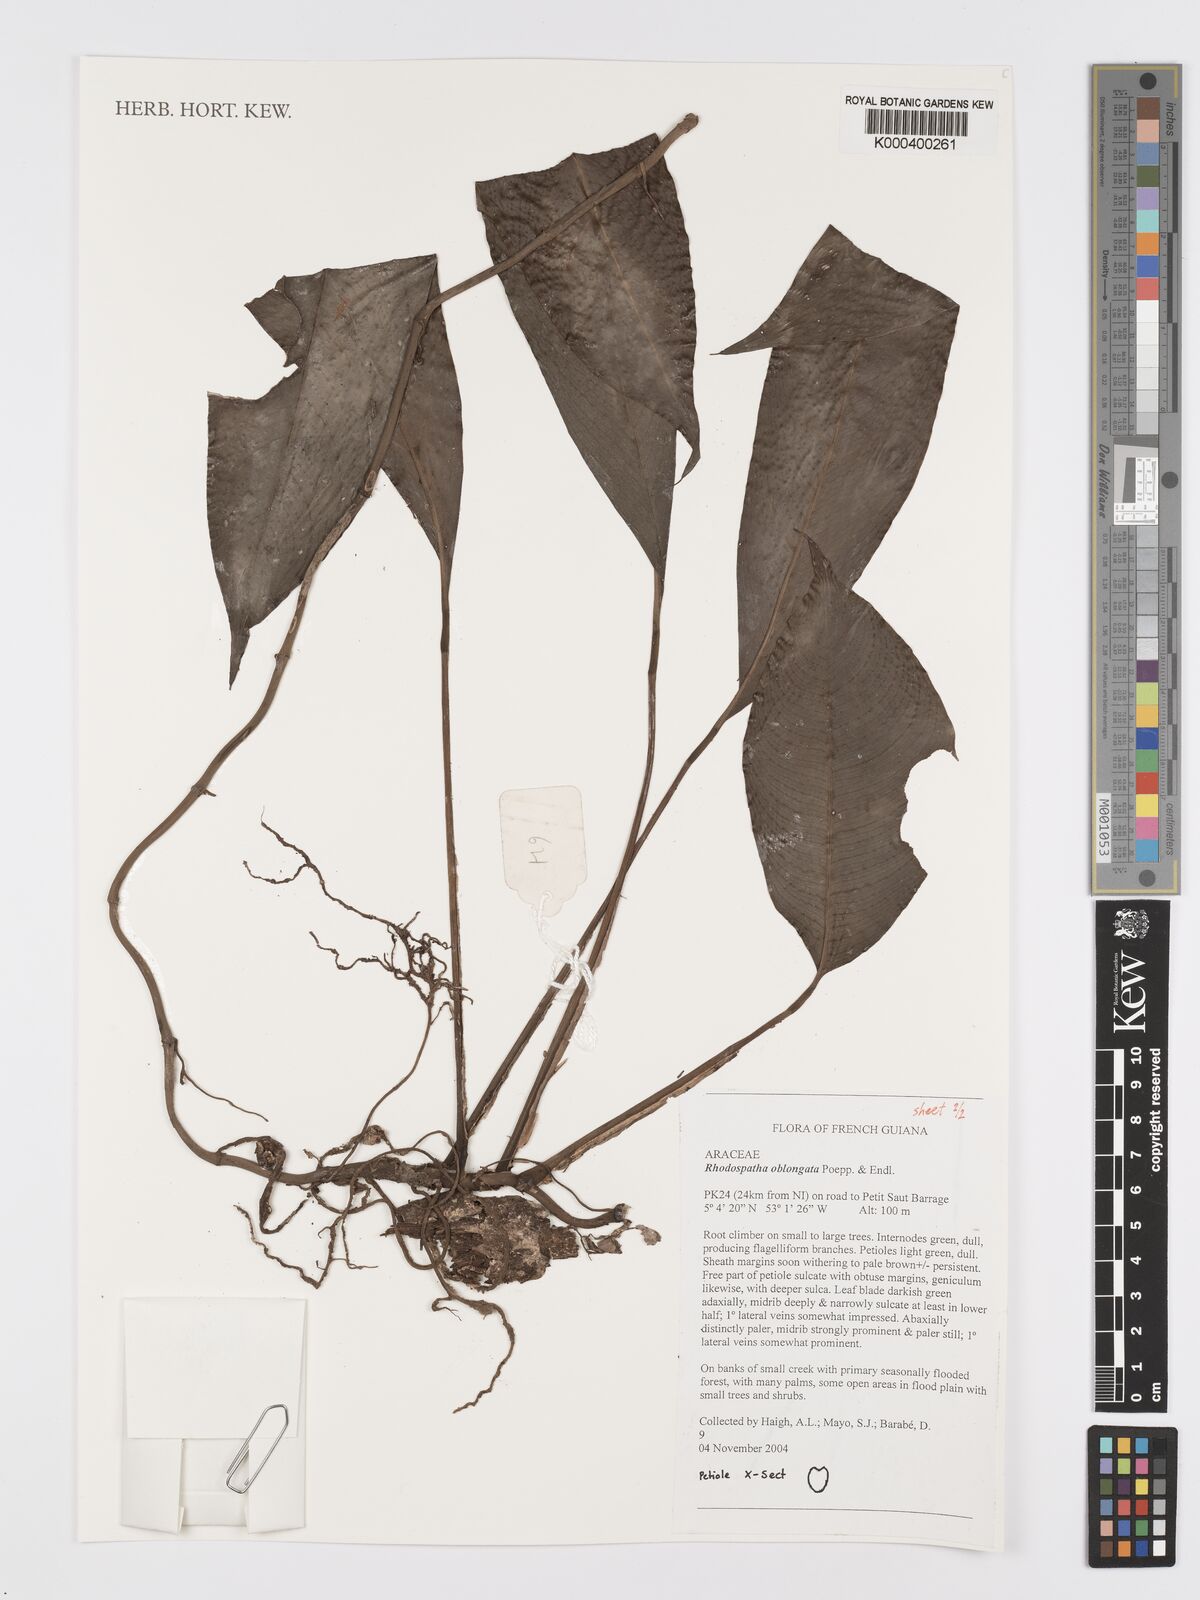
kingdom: Plantae
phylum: Tracheophyta
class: Liliopsida
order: Alismatales
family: Araceae
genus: Rhodospatha
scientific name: Rhodospatha oblongata
